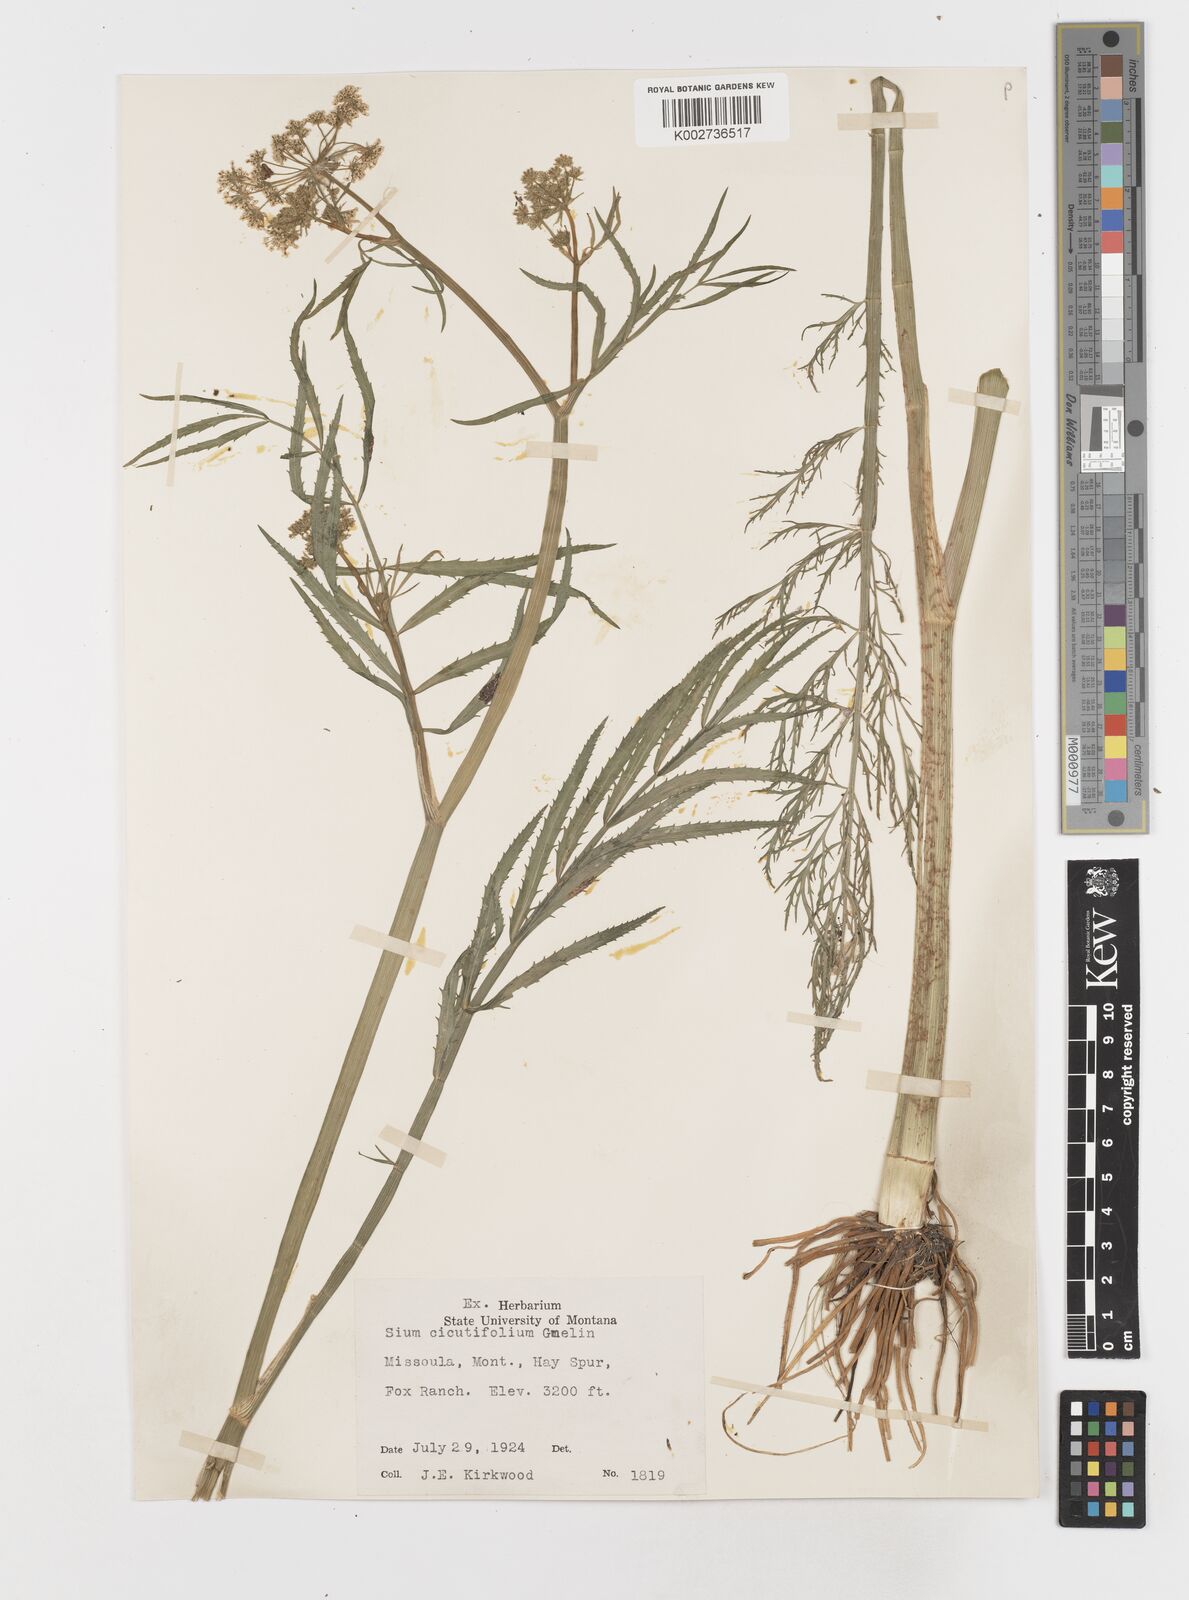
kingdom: Plantae
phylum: Tracheophyta
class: Magnoliopsida
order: Apiales
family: Apiaceae
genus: Sium
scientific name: Sium suave
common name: Hemlock water-parsnip
